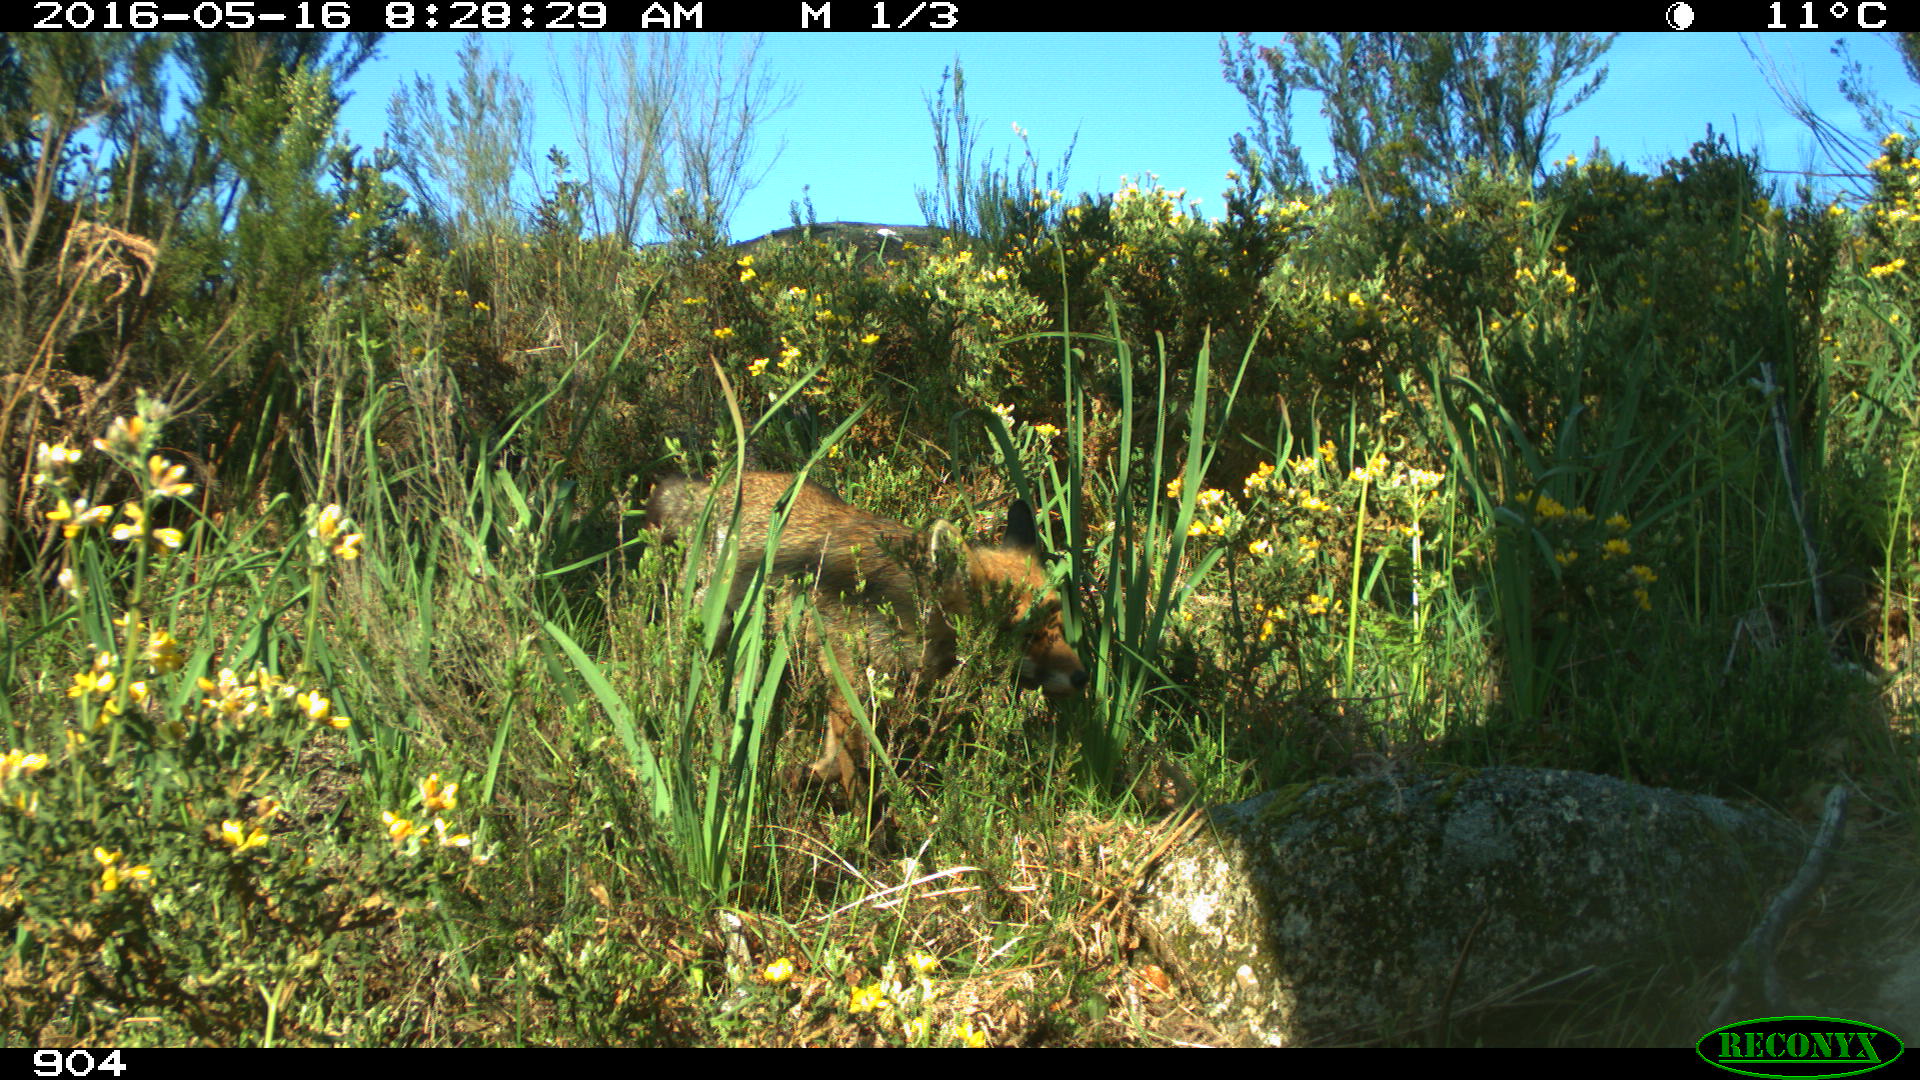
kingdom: Animalia
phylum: Chordata
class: Mammalia
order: Carnivora
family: Canidae
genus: Vulpes
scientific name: Vulpes vulpes
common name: Red fox
